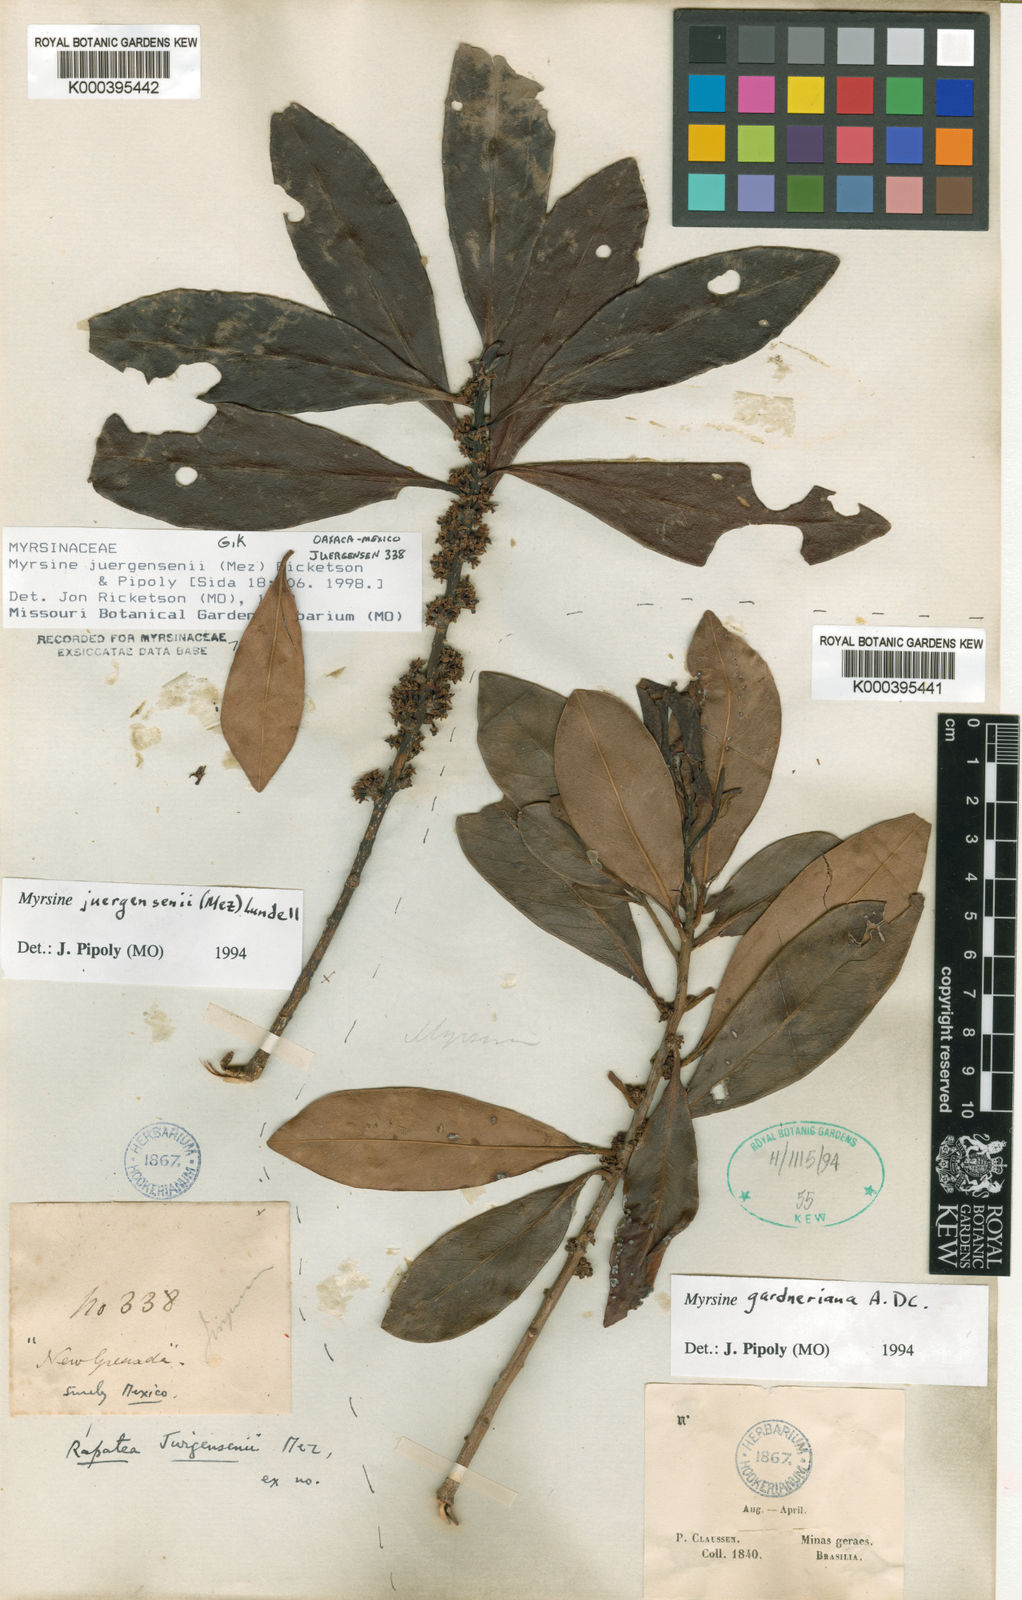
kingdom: Plantae
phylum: Tracheophyta
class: Magnoliopsida
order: Ericales
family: Primulaceae
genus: Myrsine
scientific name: Myrsine gardneriana
